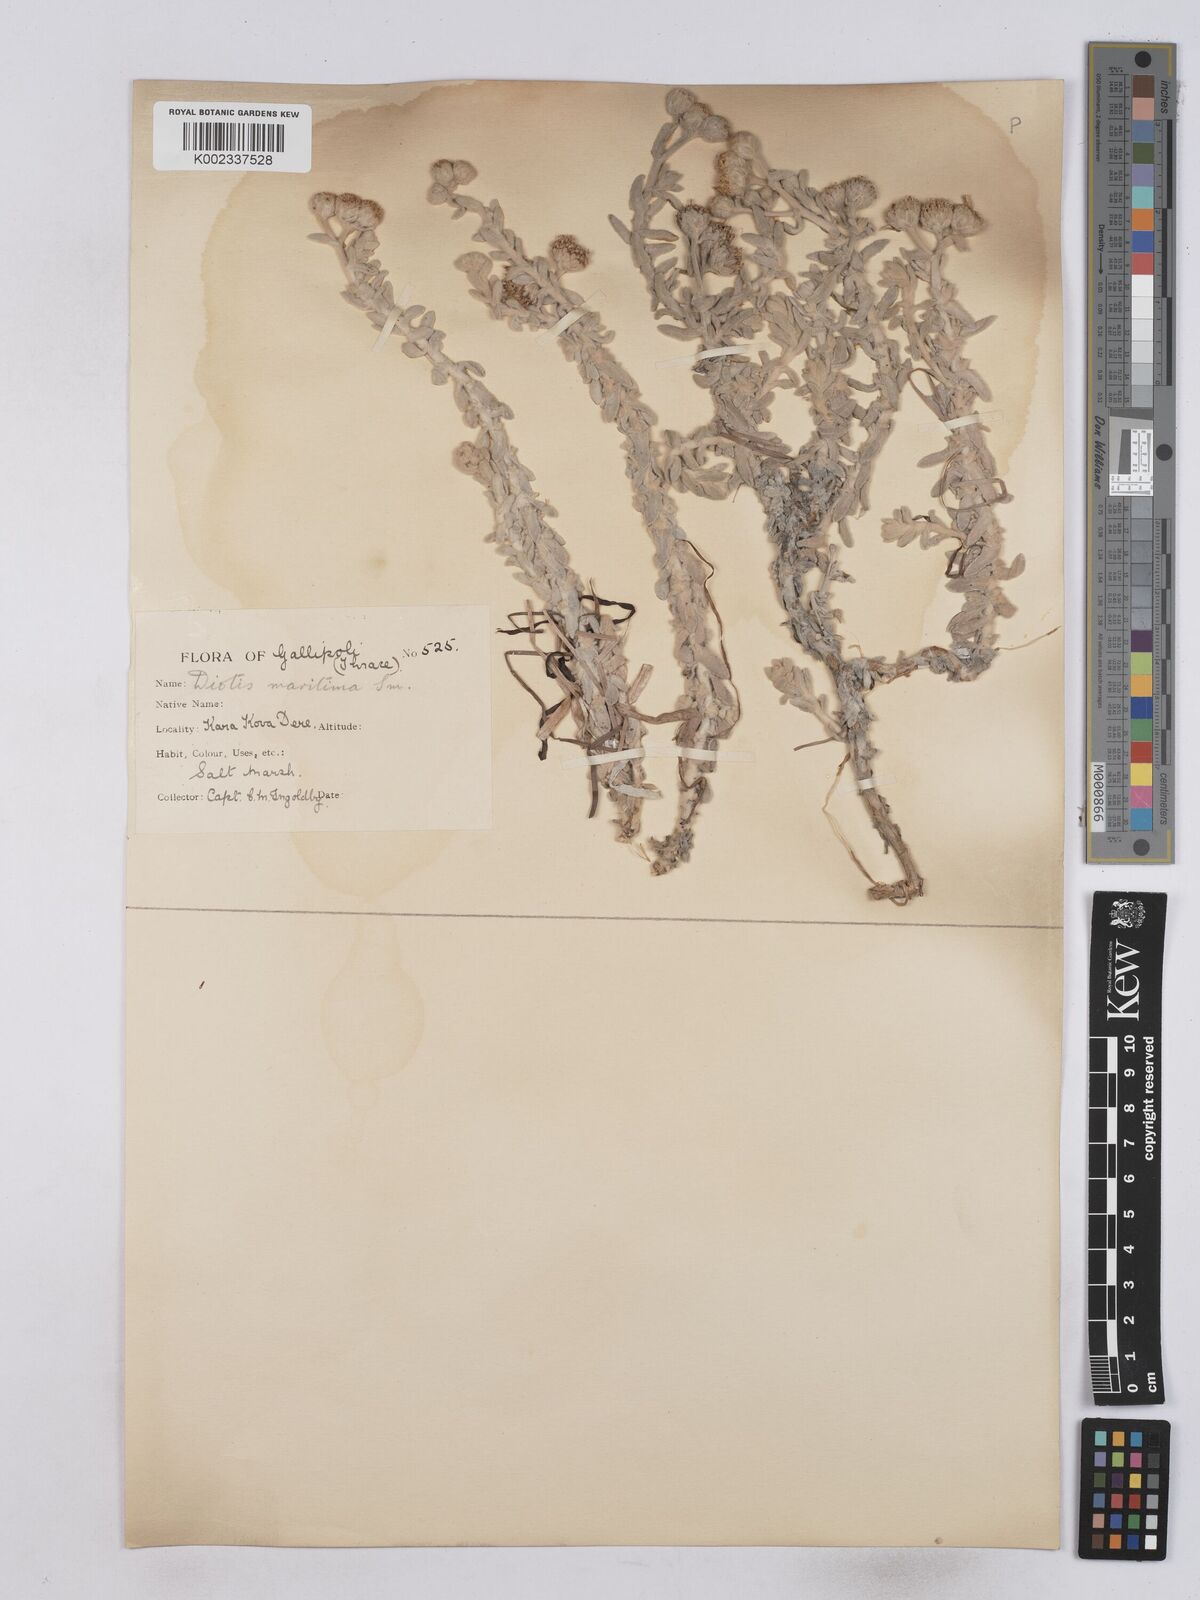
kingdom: Plantae
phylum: Tracheophyta
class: Magnoliopsida
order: Asterales
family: Asteraceae
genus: Achillea
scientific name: Achillea maritima
